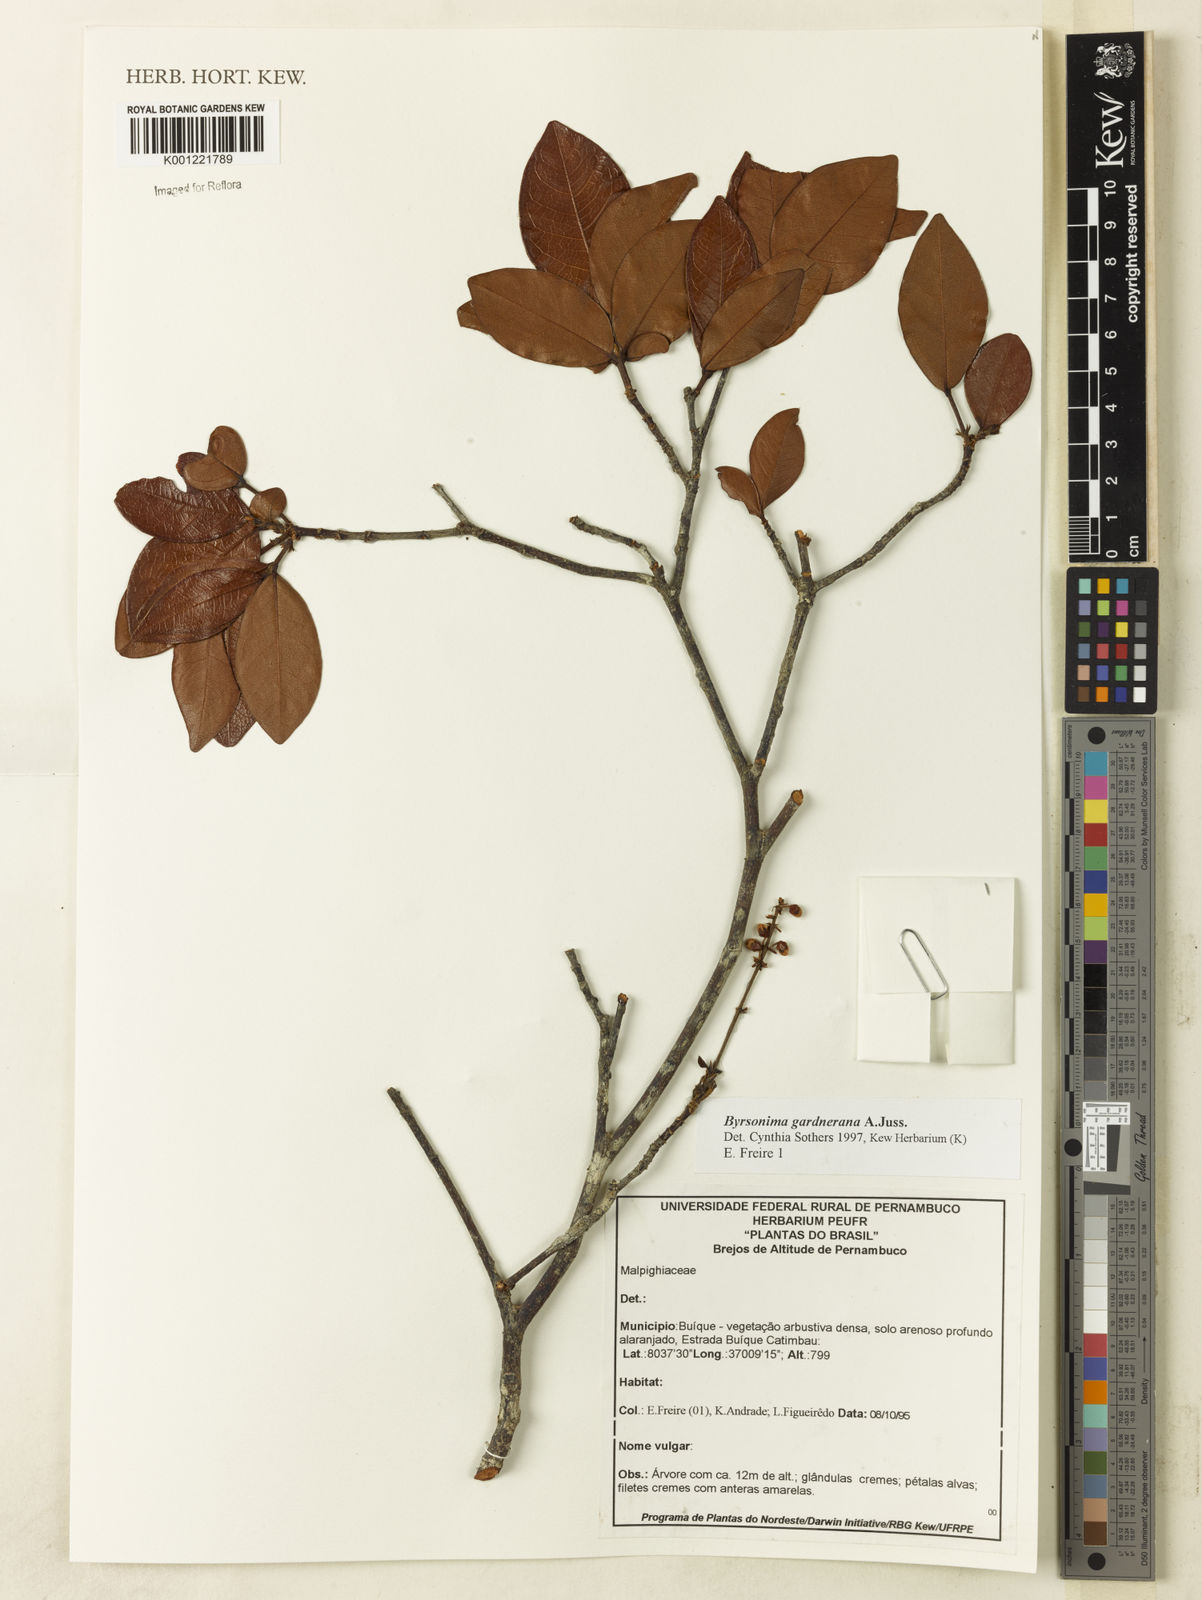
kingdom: Plantae
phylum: Tracheophyta
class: Magnoliopsida
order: Malpighiales
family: Malpighiaceae
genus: Byrsonima
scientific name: Byrsonima gardneriana
